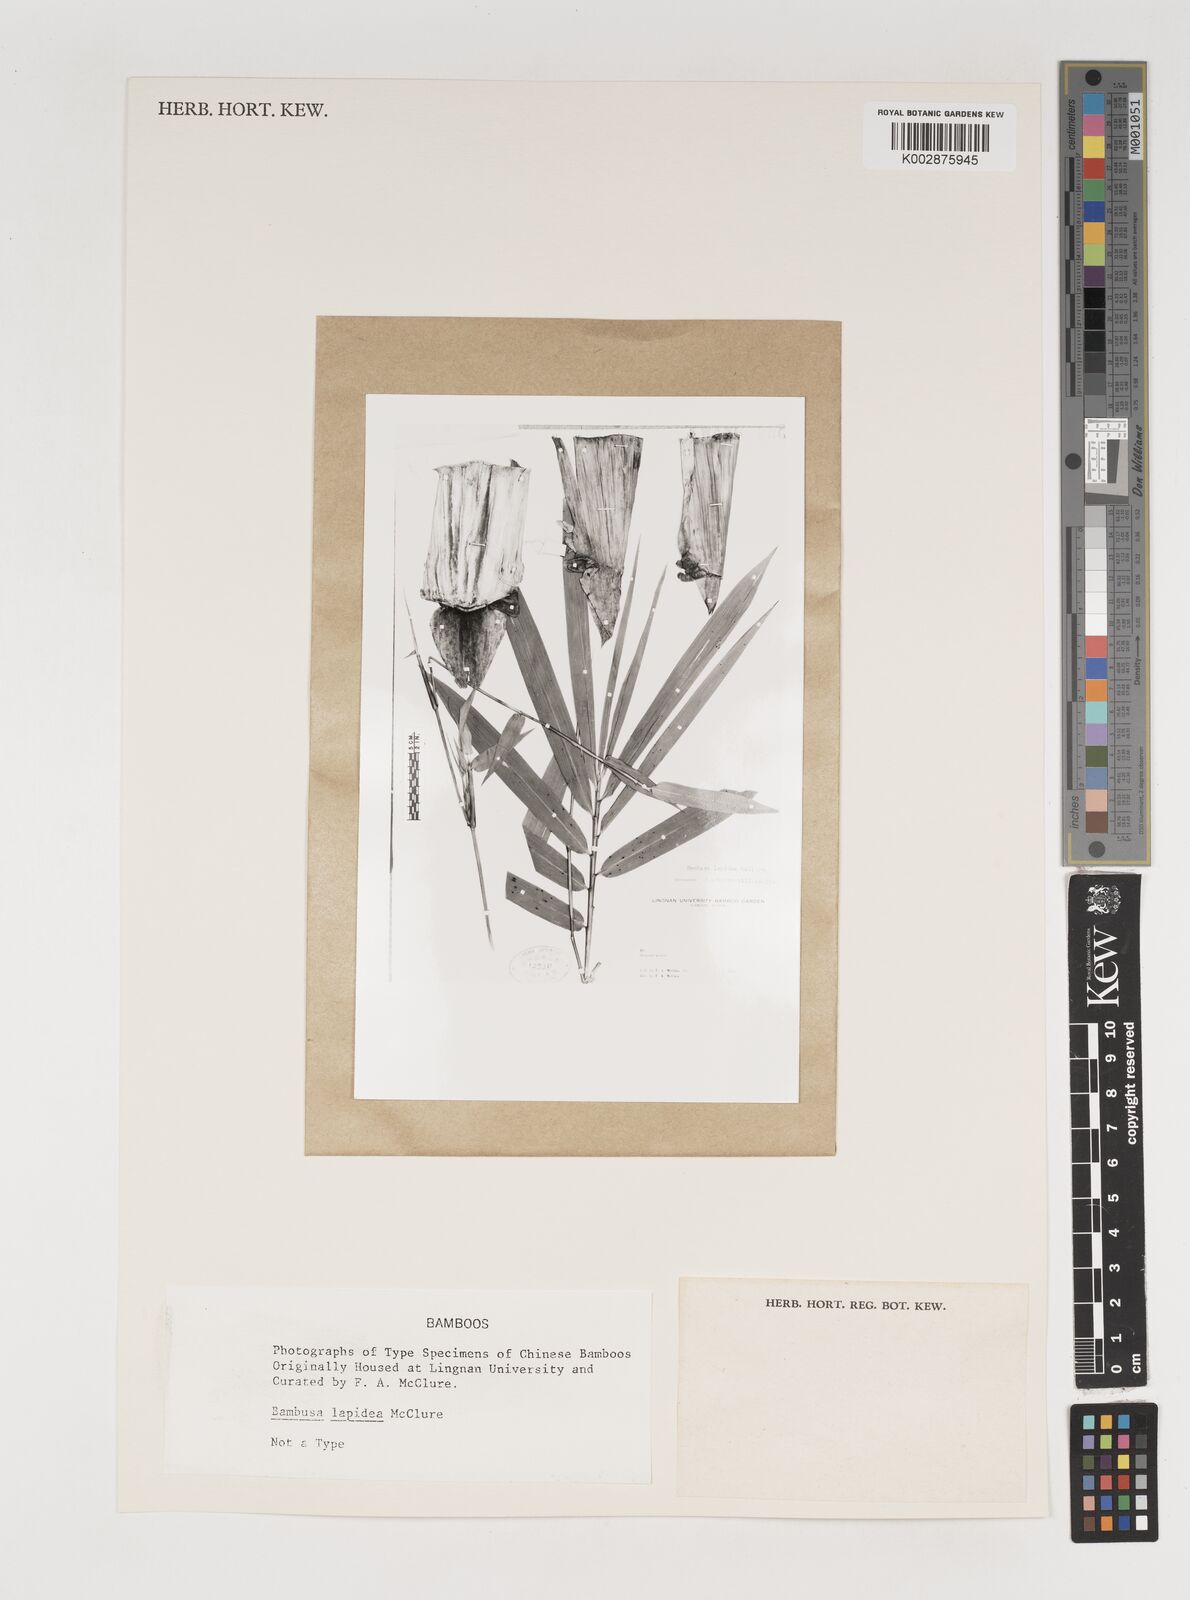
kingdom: Plantae
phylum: Tracheophyta
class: Liliopsida
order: Poales
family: Poaceae
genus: Bambusa
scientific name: Bambusa lapidea
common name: Horsehoof bamboo
